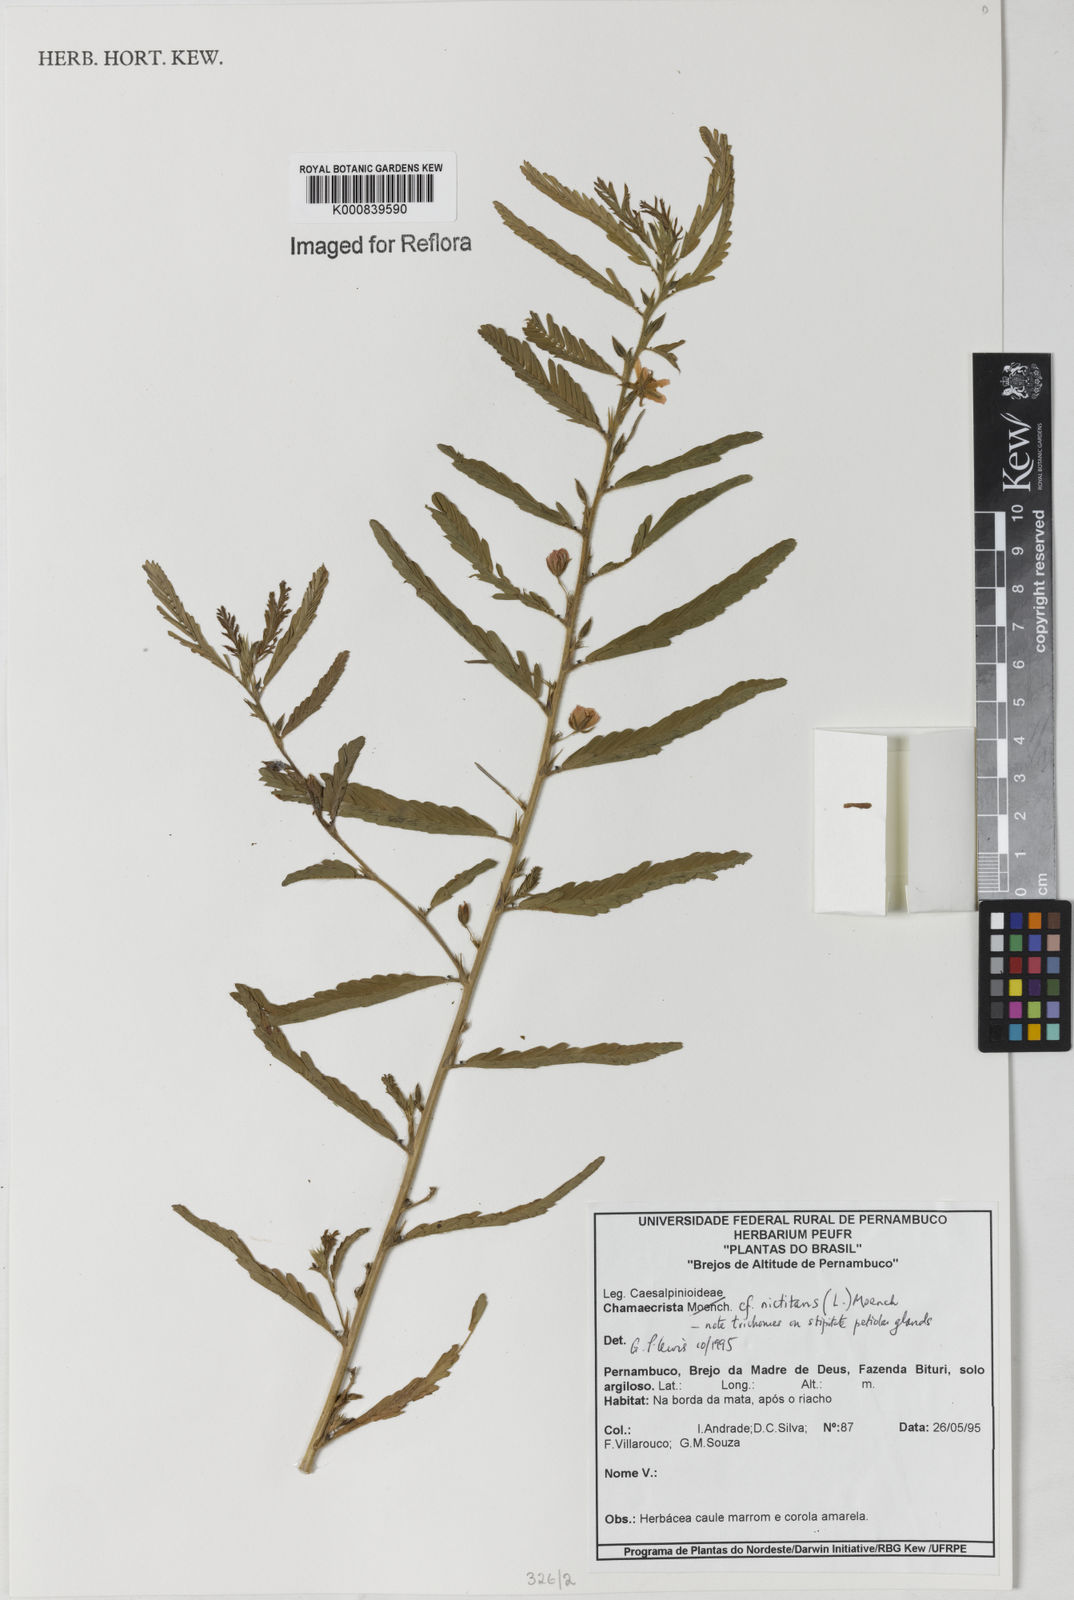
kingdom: Plantae
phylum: Tracheophyta
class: Magnoliopsida
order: Fabales
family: Fabaceae
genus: Chamaecrista
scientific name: Chamaecrista nictitans
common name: Sensitive cassia
